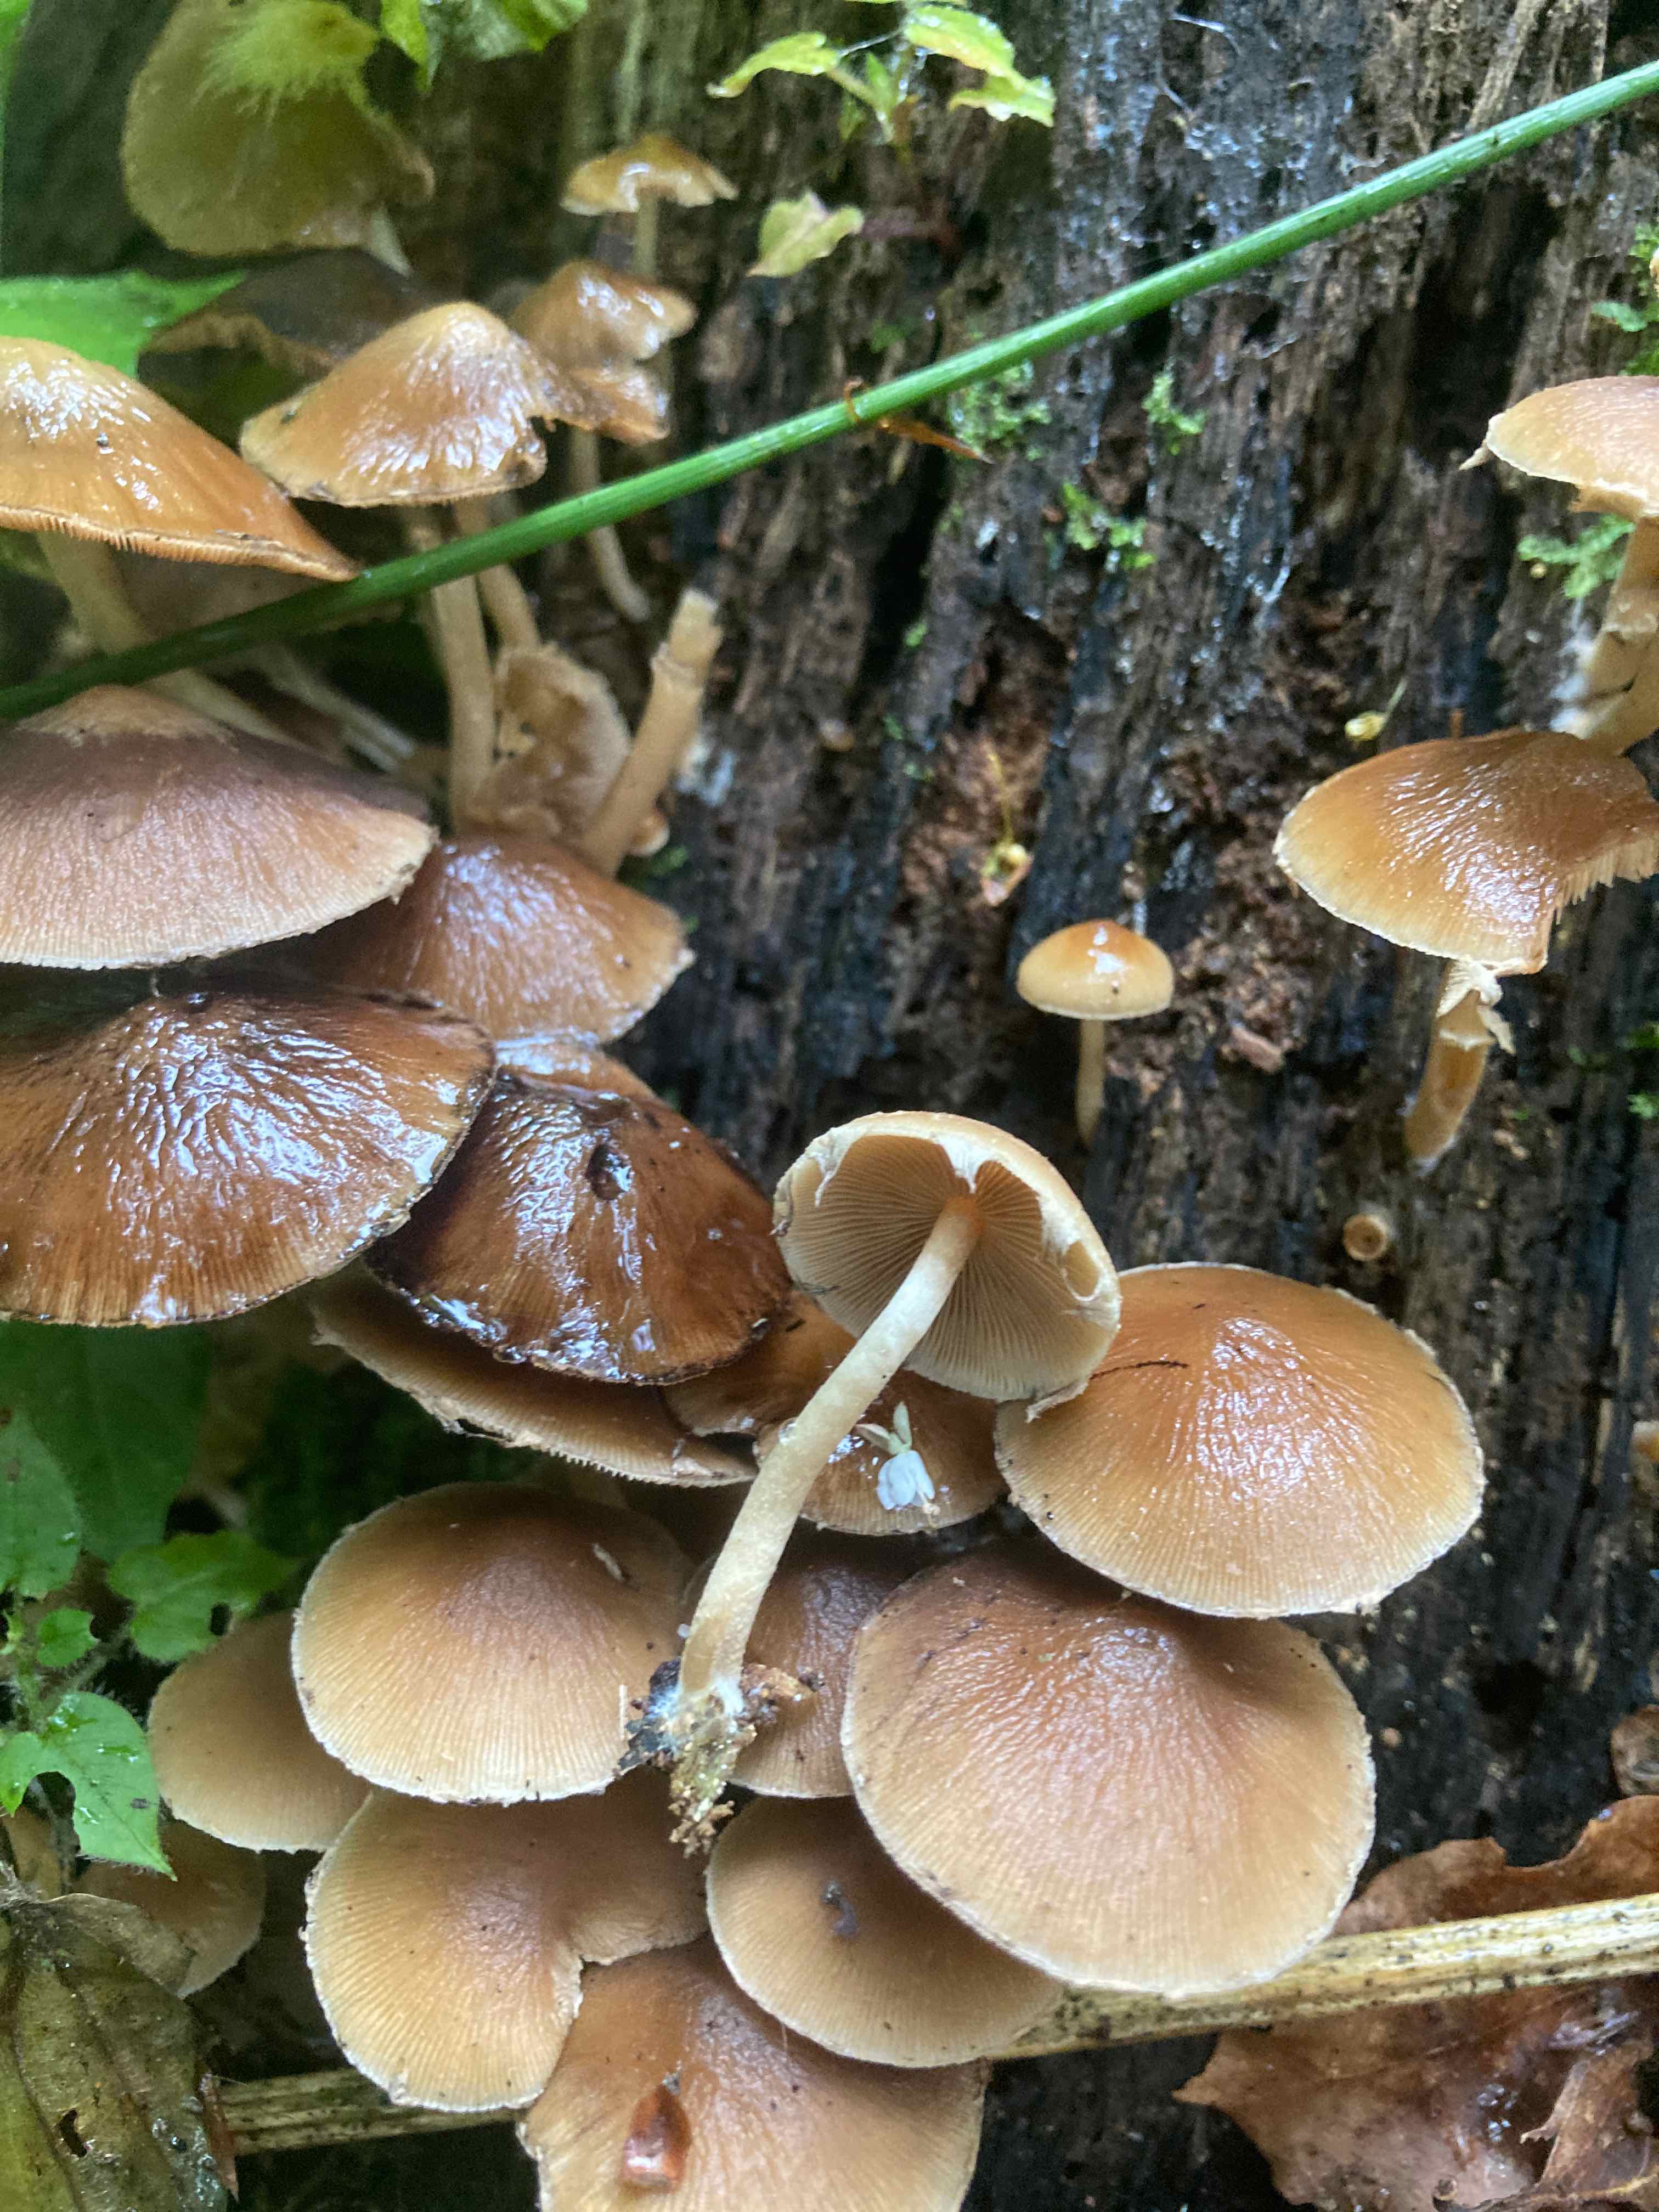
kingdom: Fungi
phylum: Basidiomycota
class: Agaricomycetes
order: Agaricales
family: Psathyrellaceae
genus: Psathyrella
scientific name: Psathyrella piluliformis
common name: lysstokket mørkhat
